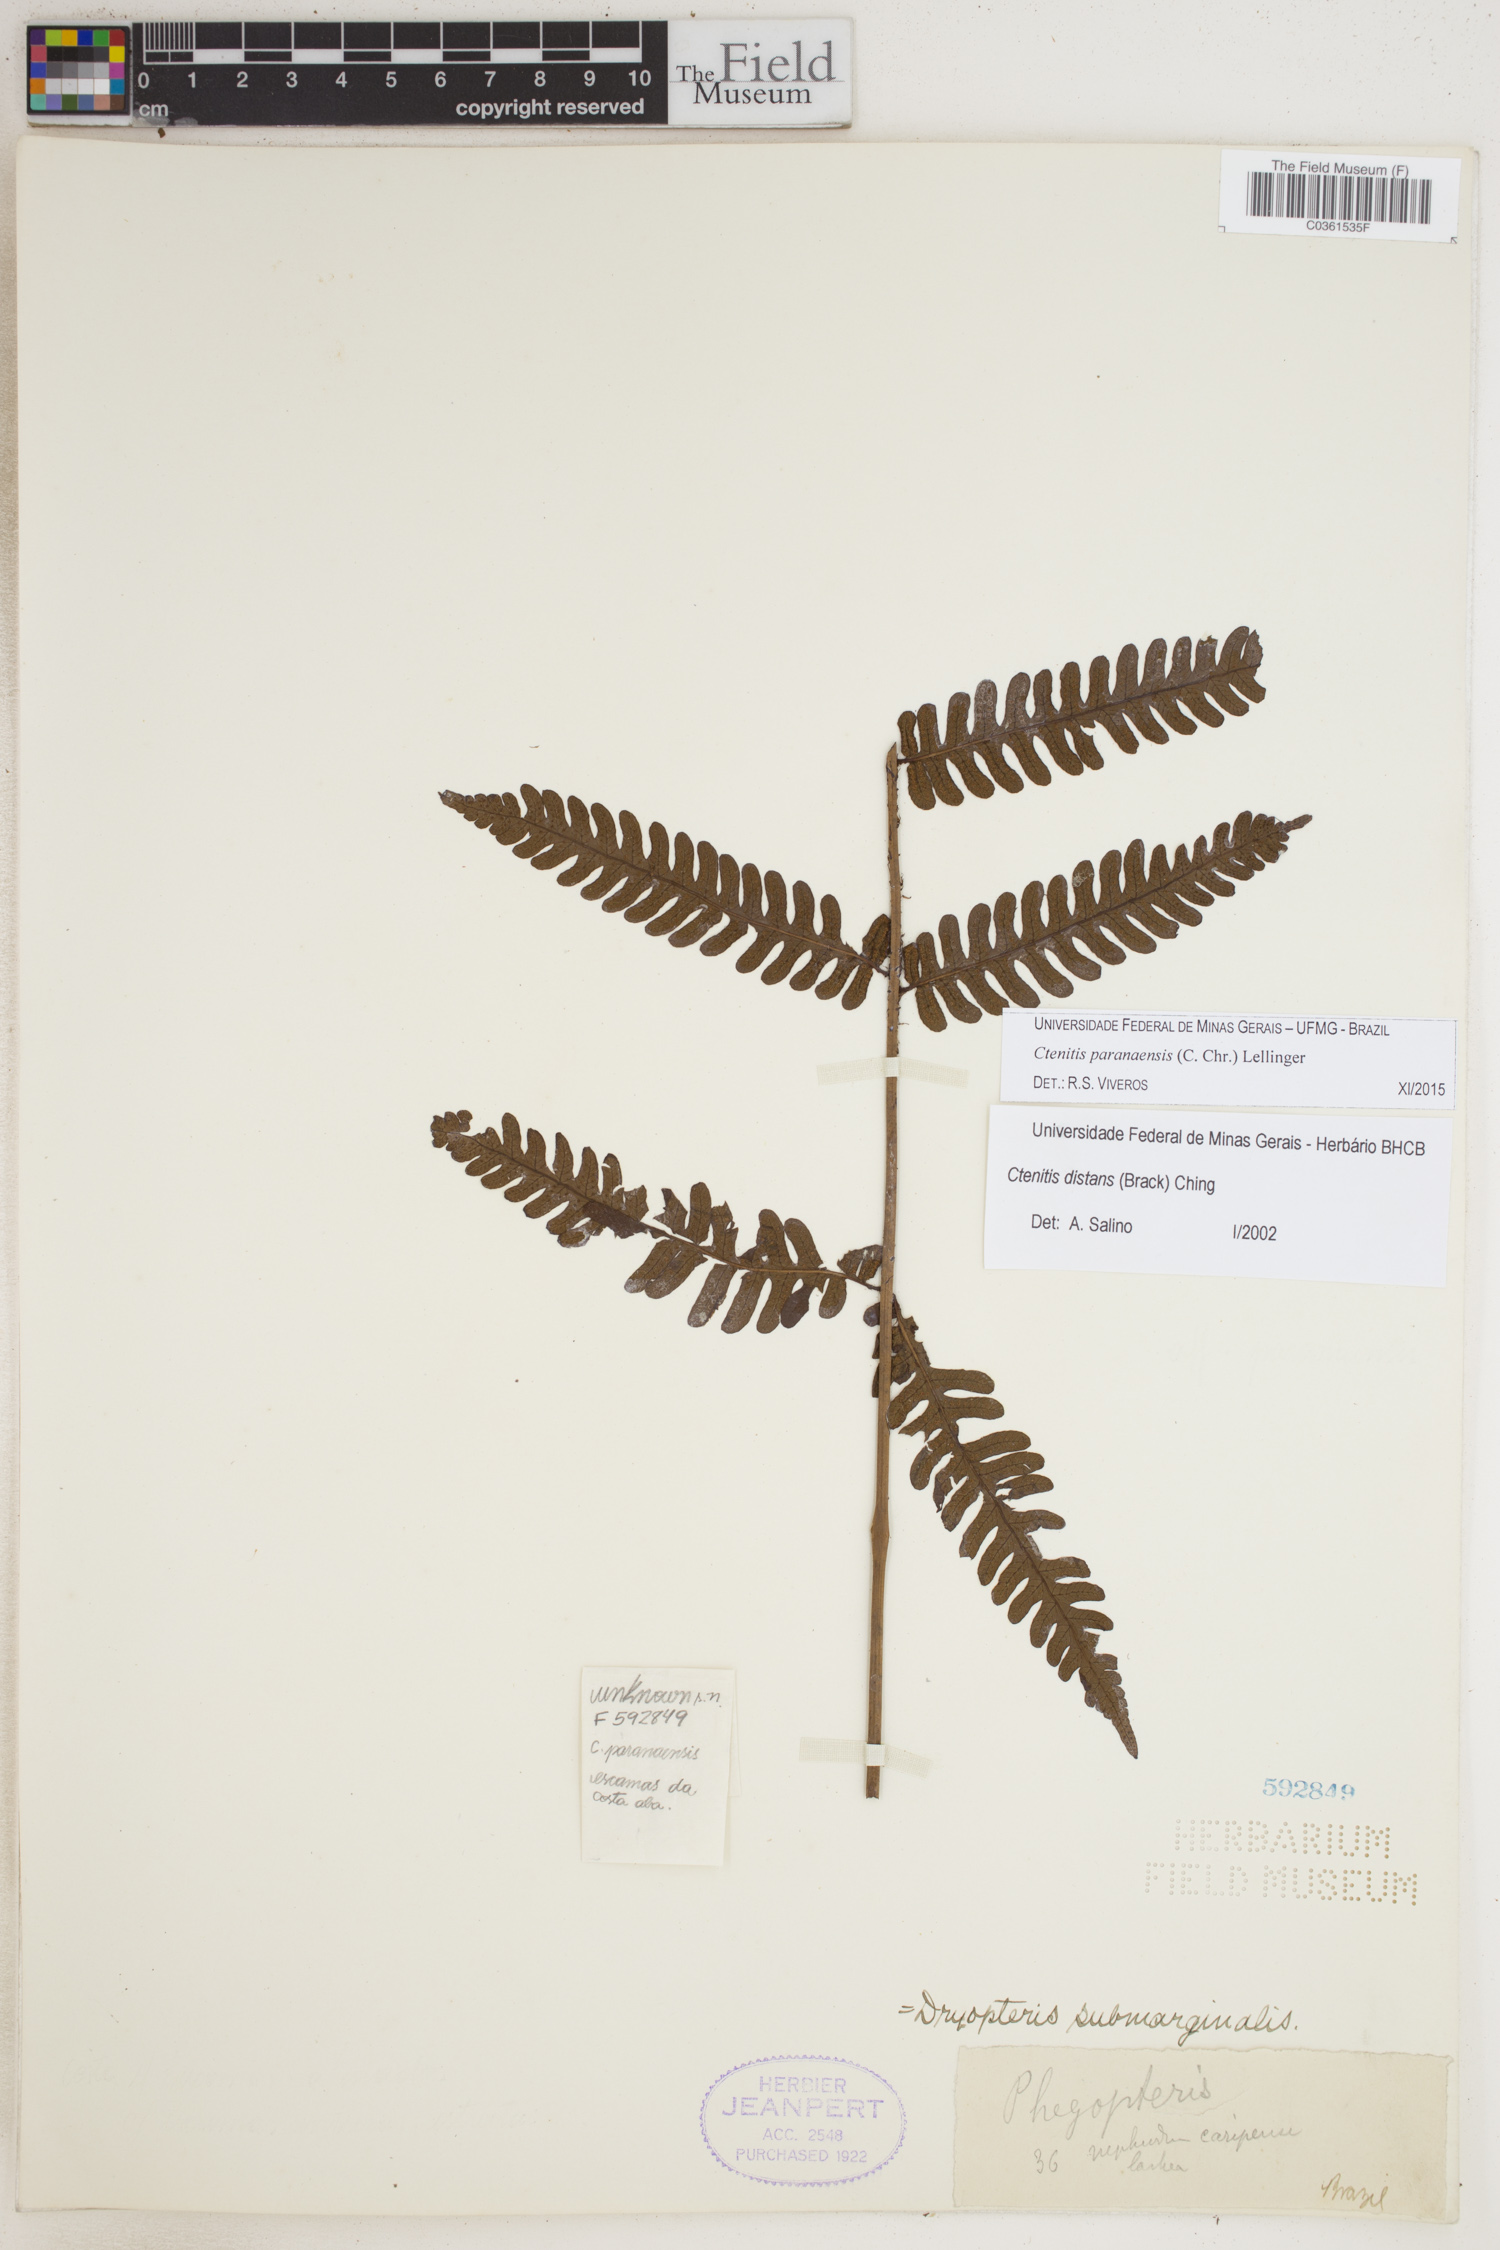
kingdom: Plantae
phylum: Tracheophyta
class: Polypodiopsida
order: Polypodiales
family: Dryopteridaceae
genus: Ctenitis
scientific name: Ctenitis paranaensis
